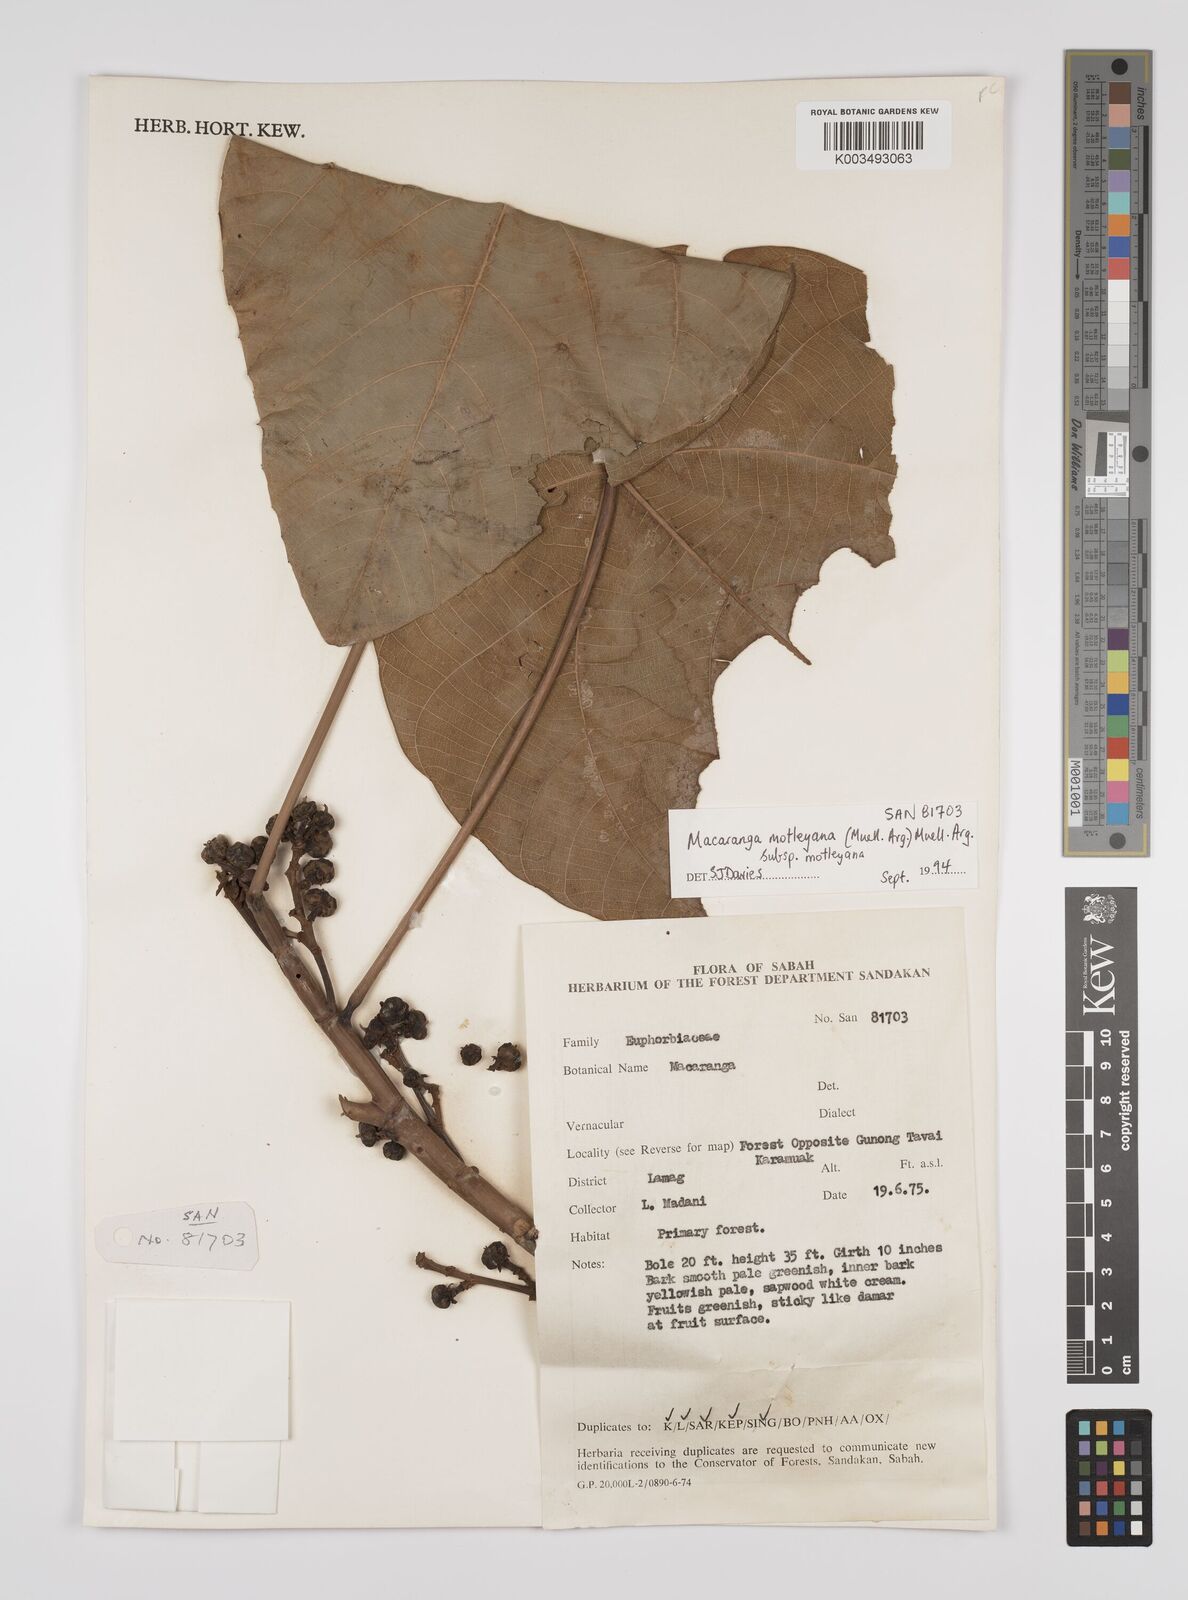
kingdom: Plantae
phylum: Tracheophyta
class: Magnoliopsida
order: Malpighiales
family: Euphorbiaceae
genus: Macaranga
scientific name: Macaranga motleyana
